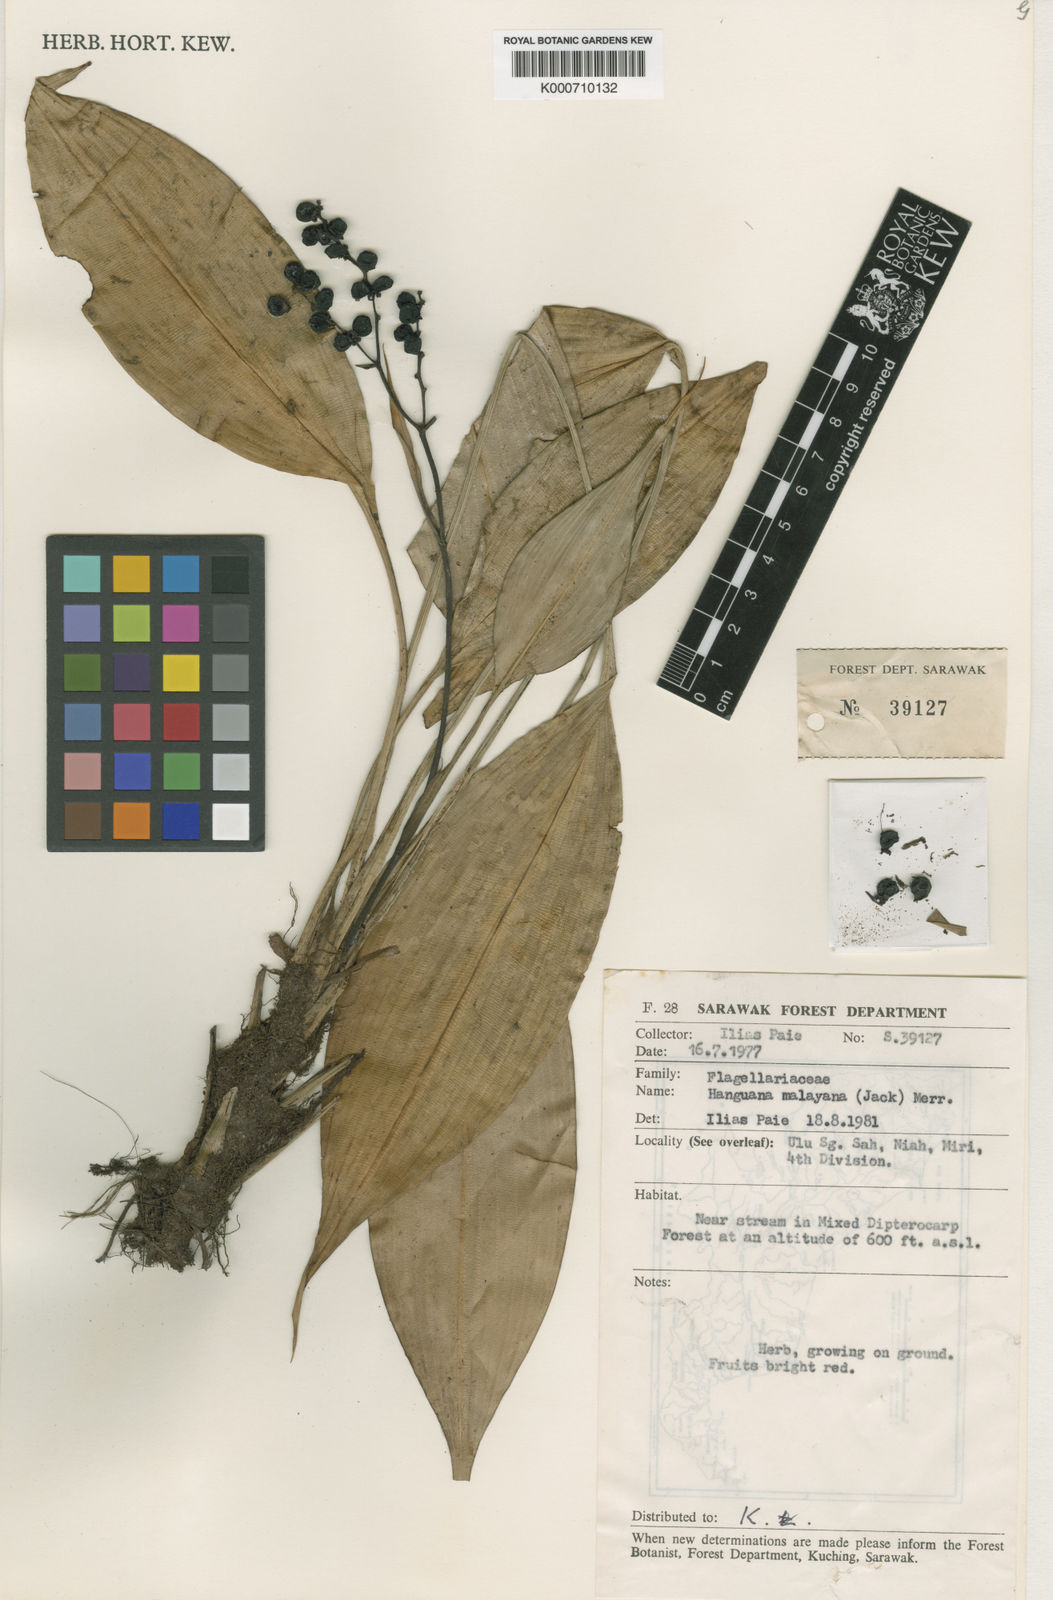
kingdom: Plantae
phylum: Tracheophyta
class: Liliopsida
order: Commelinales
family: Hanguanaceae
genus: Hanguana
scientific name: Hanguana malayana
